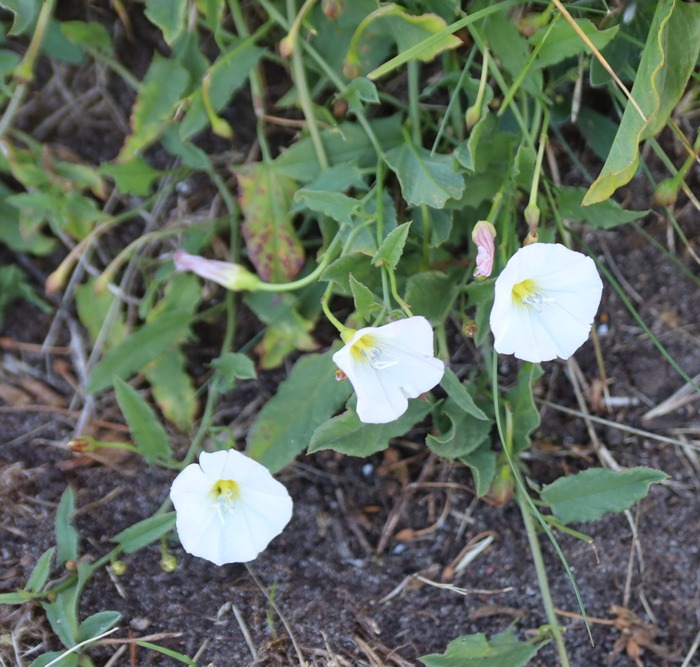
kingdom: Plantae
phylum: Tracheophyta
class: Magnoliopsida
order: Solanales
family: Convolvulaceae
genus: Convolvulus
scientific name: Convolvulus arvensis
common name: Ager-snerle
